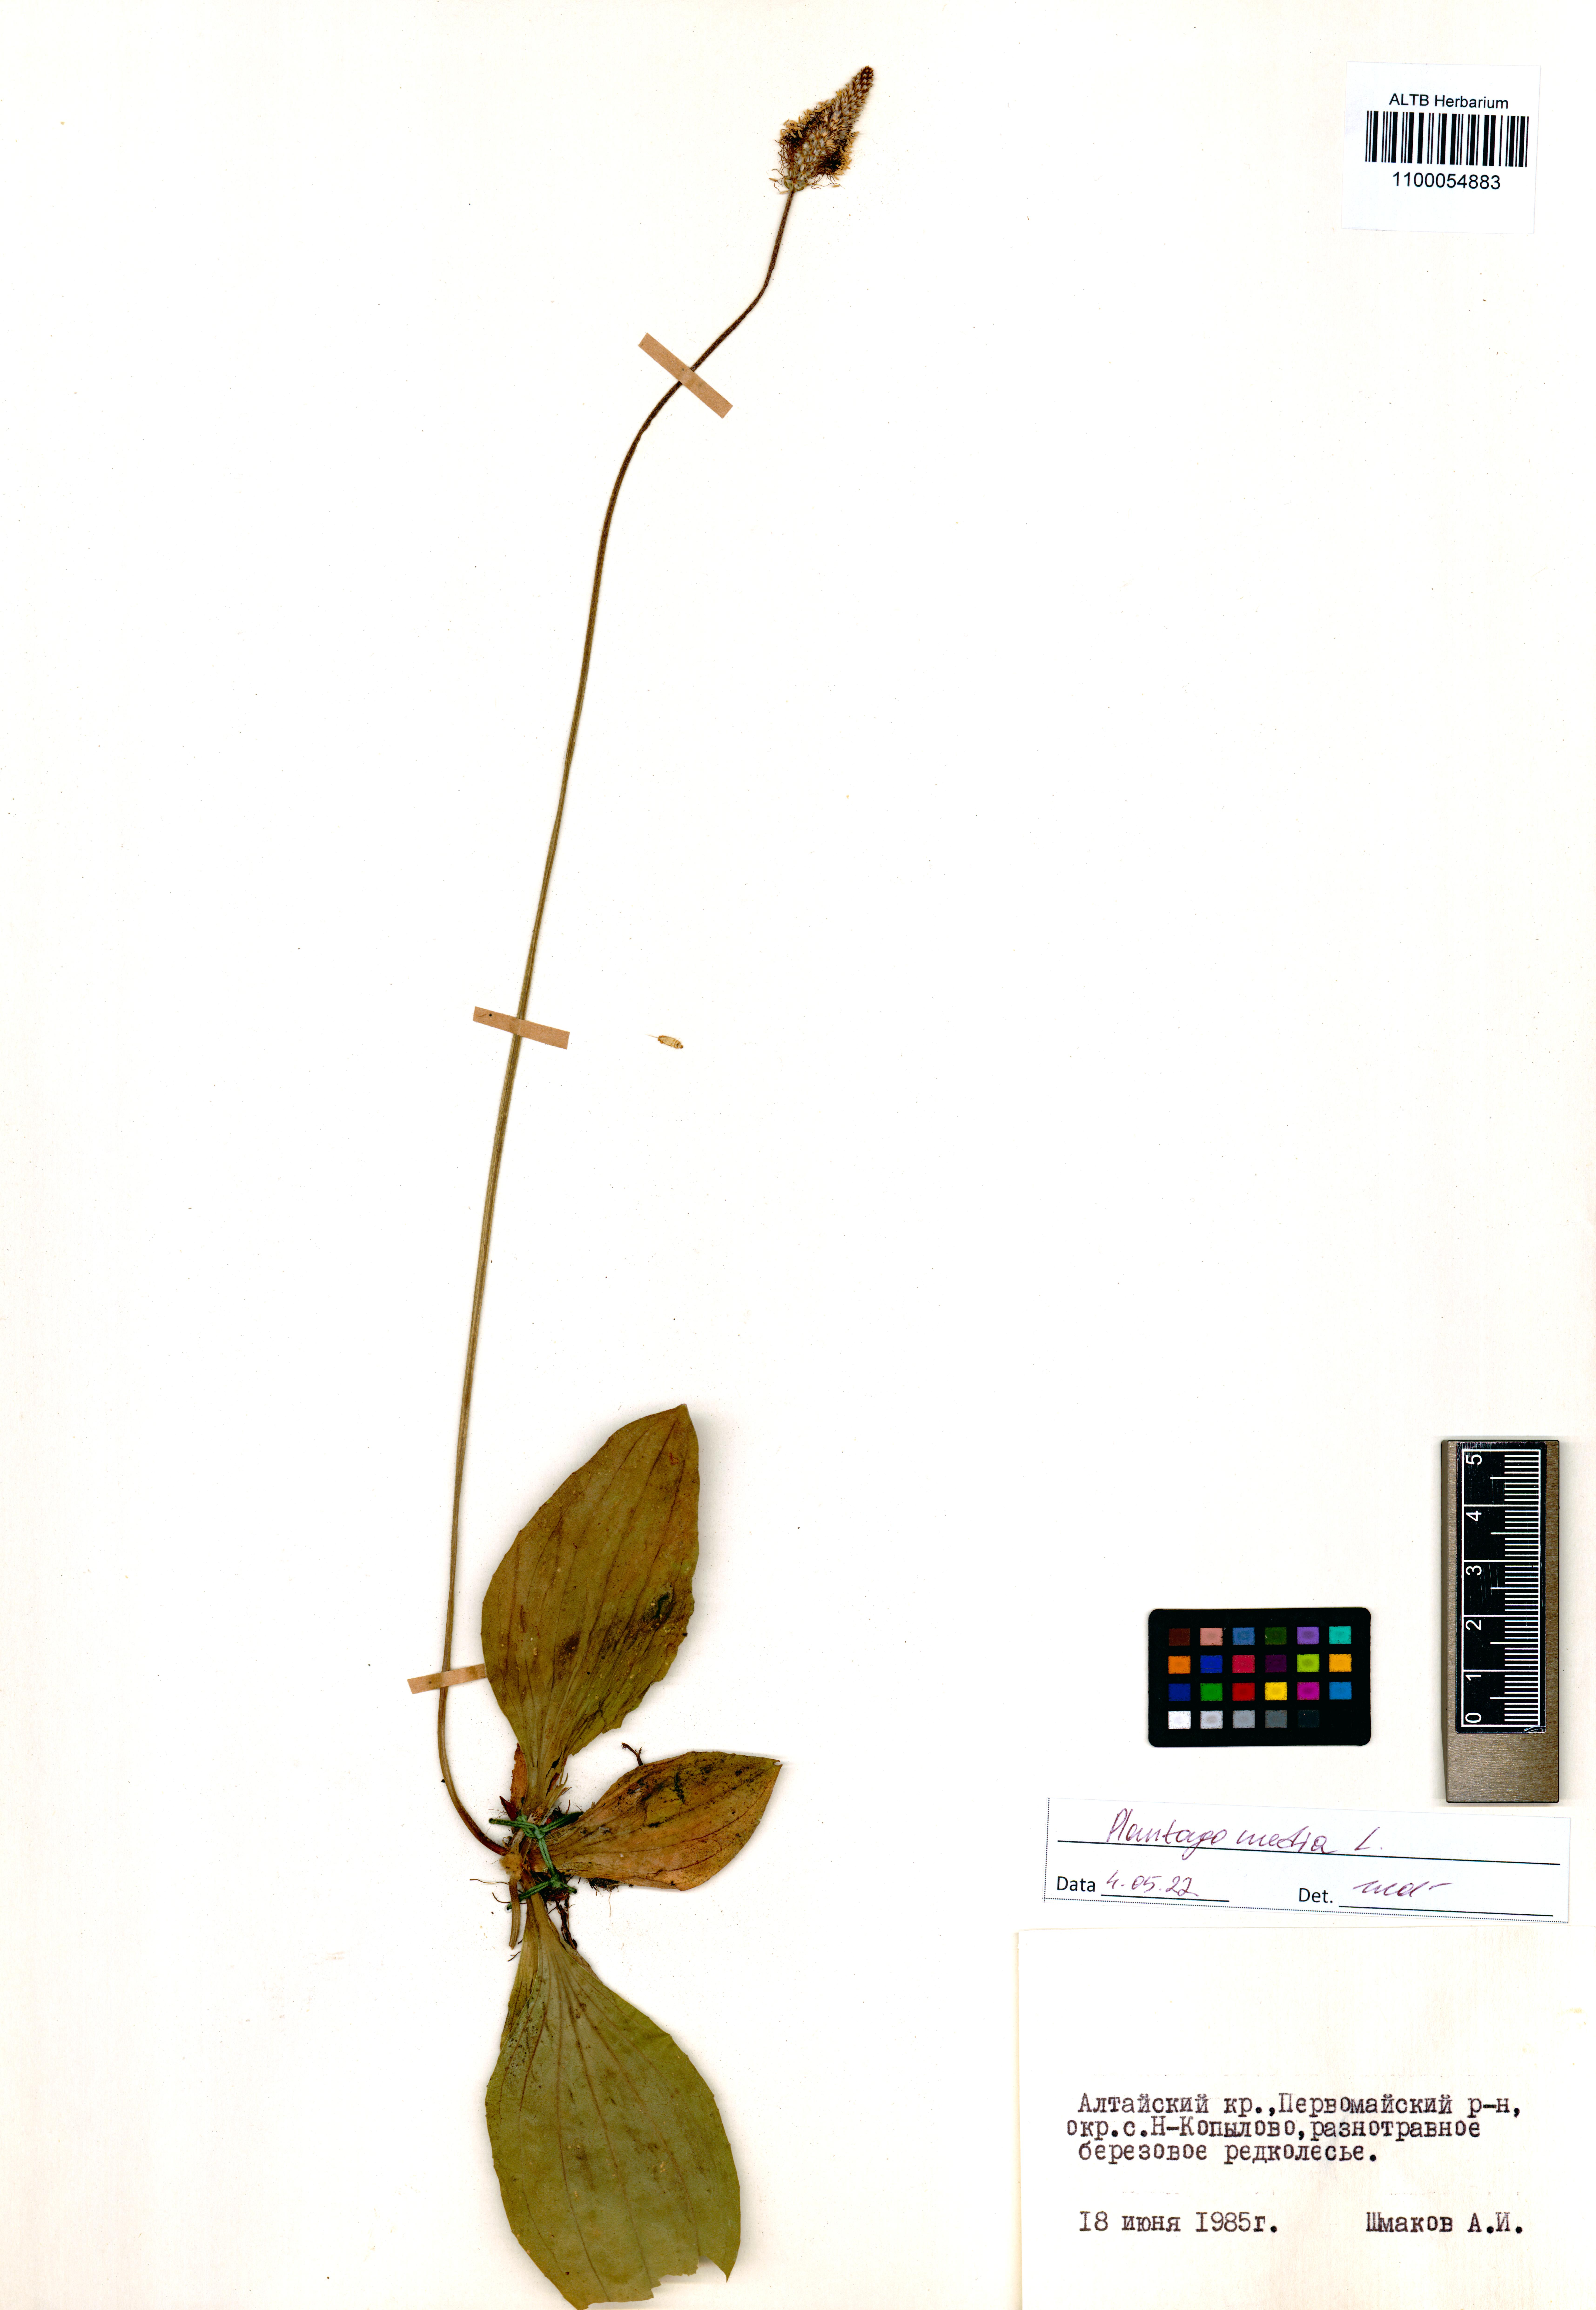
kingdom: Plantae
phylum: Tracheophyta
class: Magnoliopsida
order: Lamiales
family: Plantaginaceae
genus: Plantago
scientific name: Plantago media
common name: Hoary plantain
